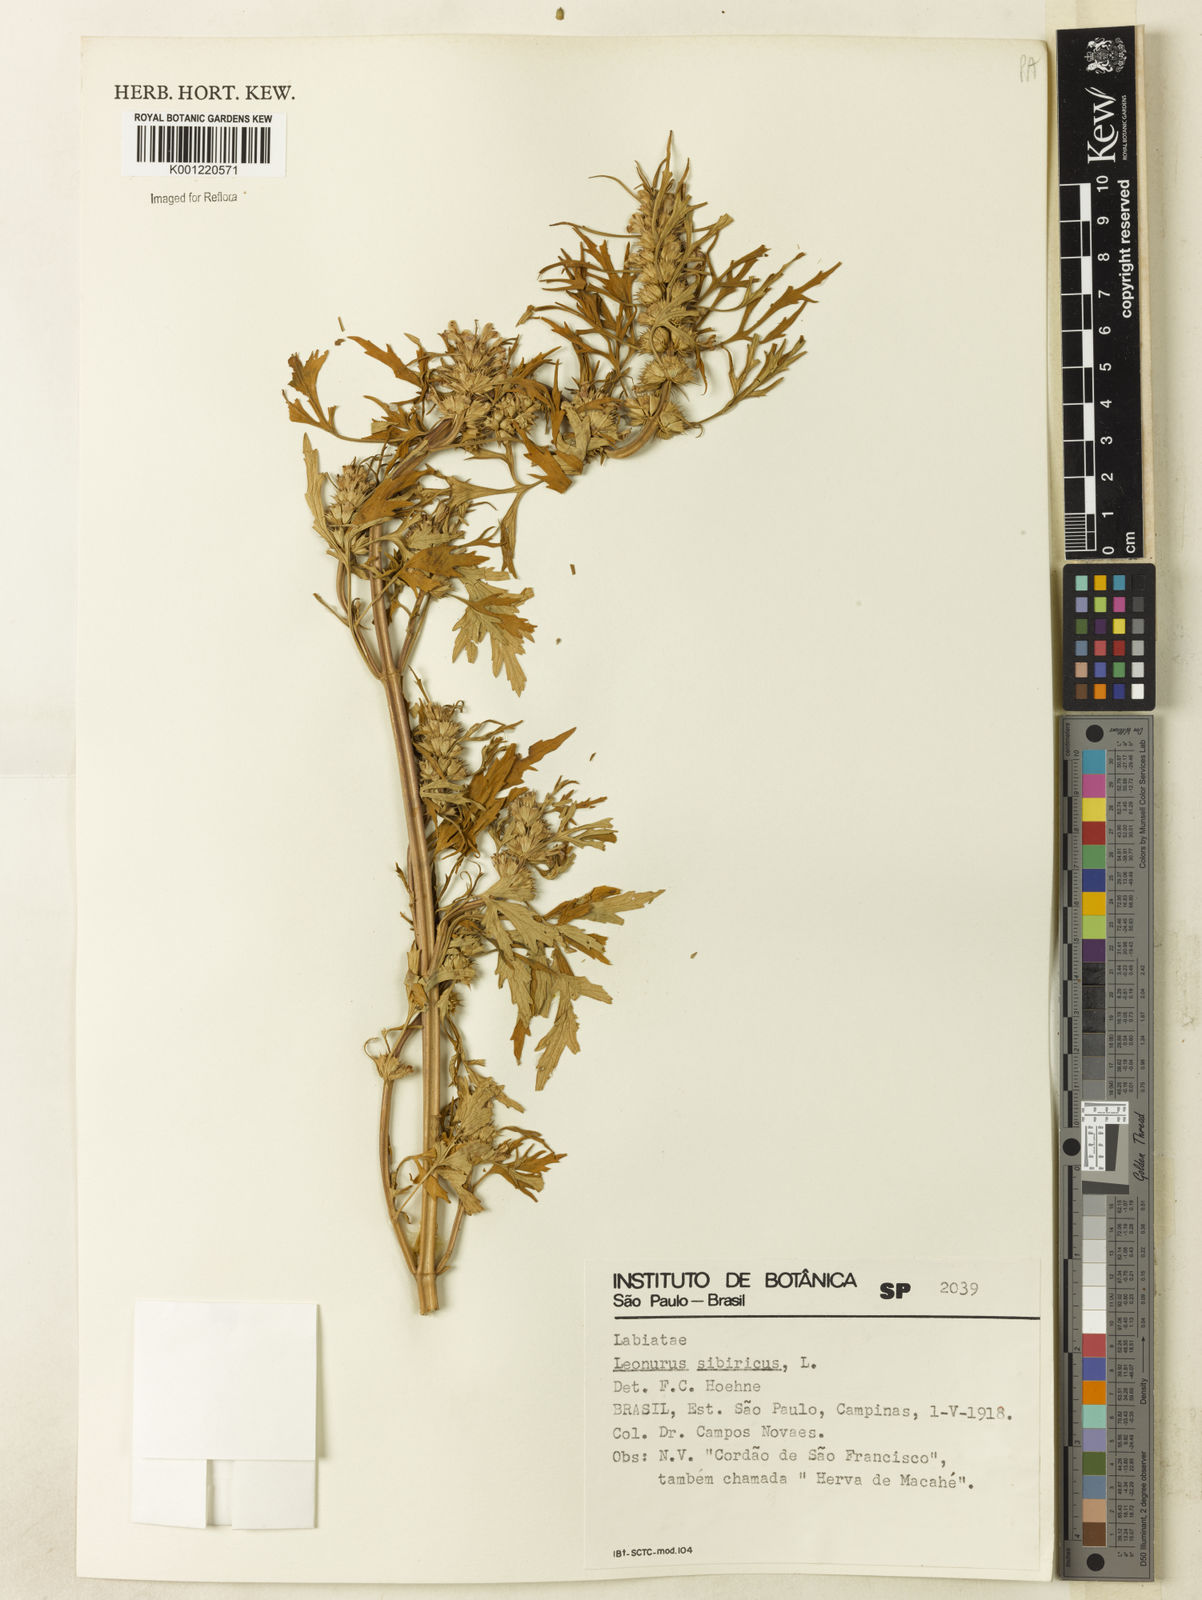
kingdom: Plantae
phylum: Tracheophyta
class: Magnoliopsida
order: Lamiales
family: Lamiaceae
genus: Leonurus
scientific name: Leonurus japonicus
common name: Honeyweed
